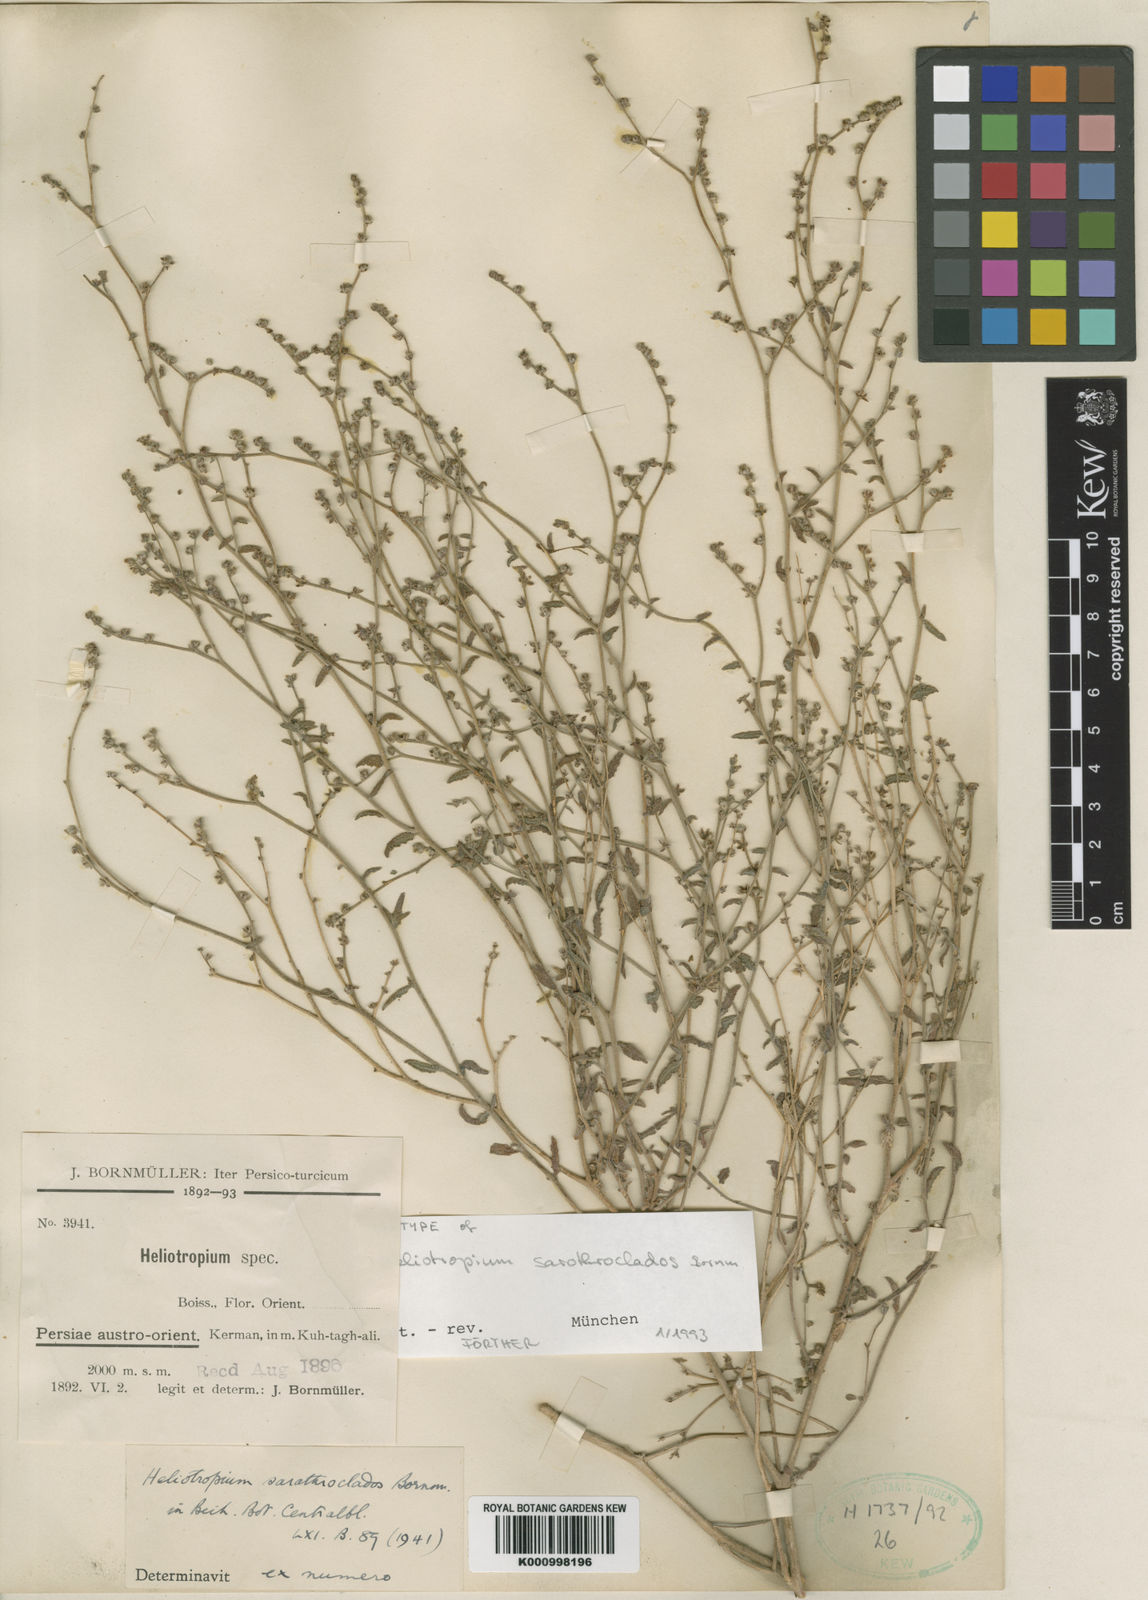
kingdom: Plantae
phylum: Tracheophyta
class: Magnoliopsida
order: Boraginales
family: Heliotropiaceae
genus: Heliotropium
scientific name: Heliotropium ramosissimum
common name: Wavy heliotrope
